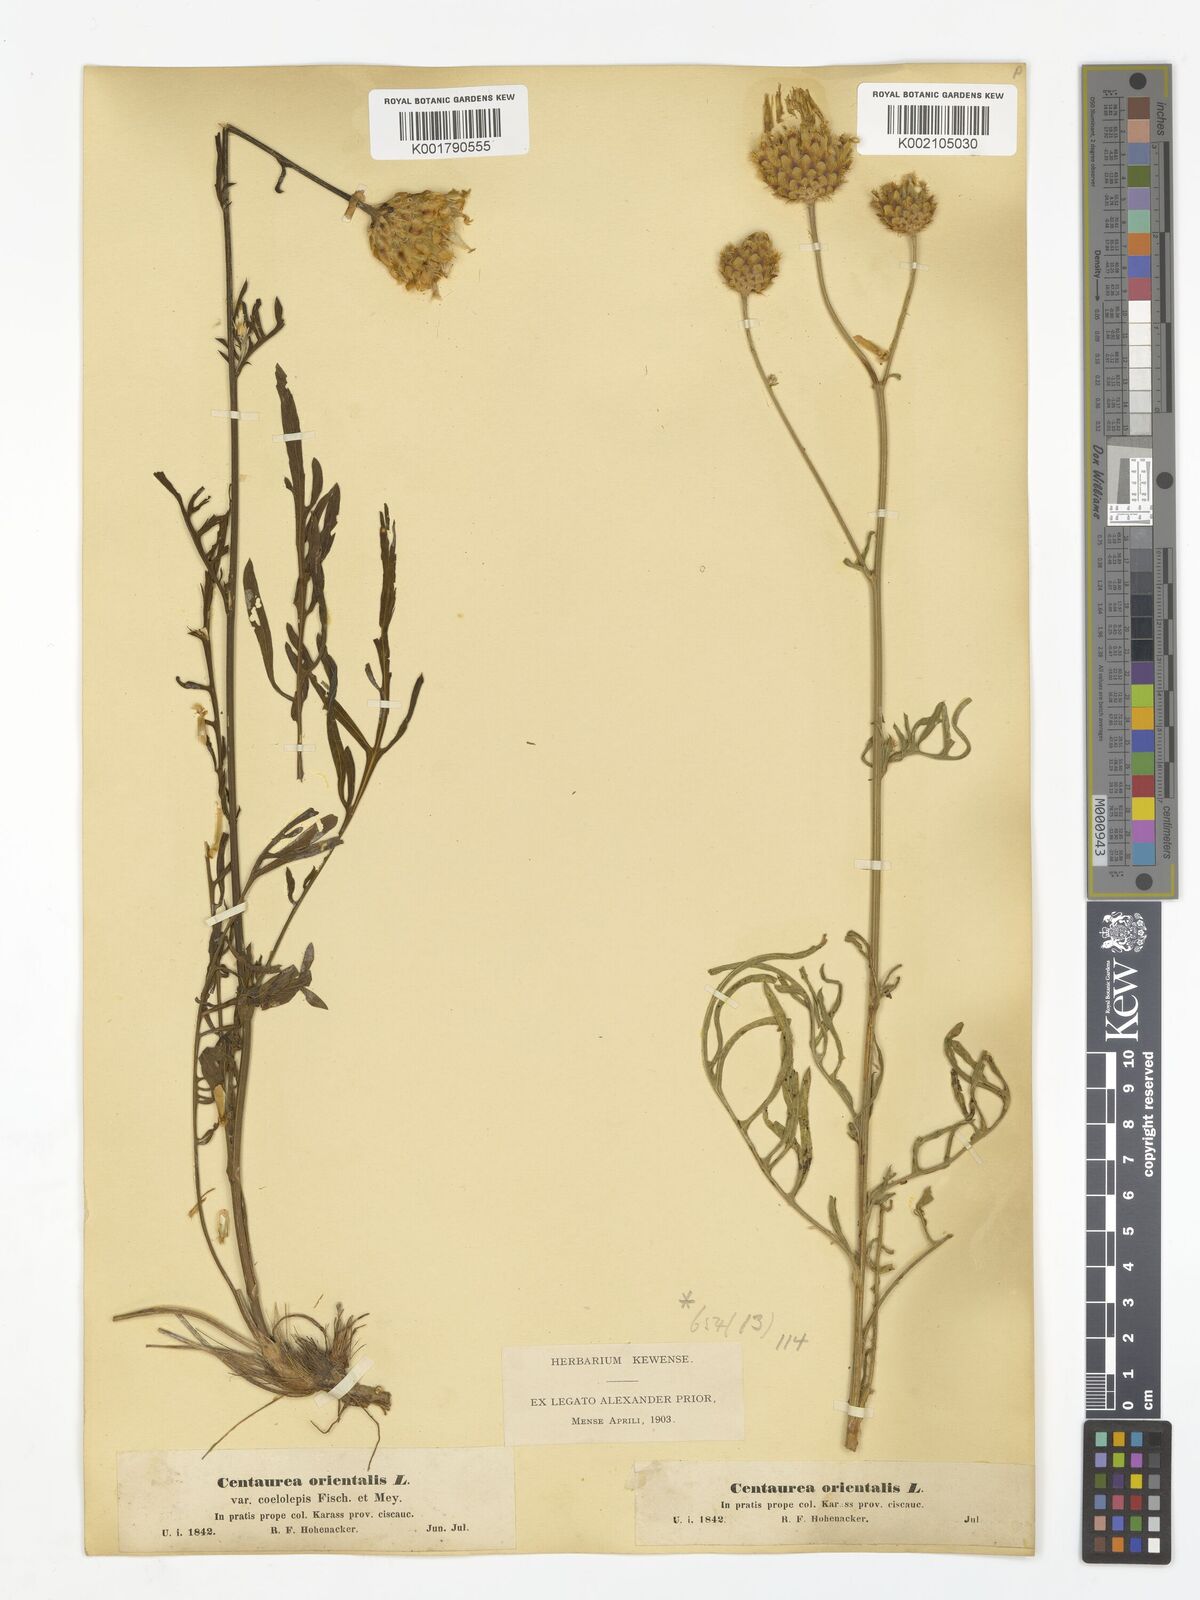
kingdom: Plantae
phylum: Tracheophyta
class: Magnoliopsida
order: Asterales
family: Asteraceae
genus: Centaurea
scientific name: Centaurea orientalis
